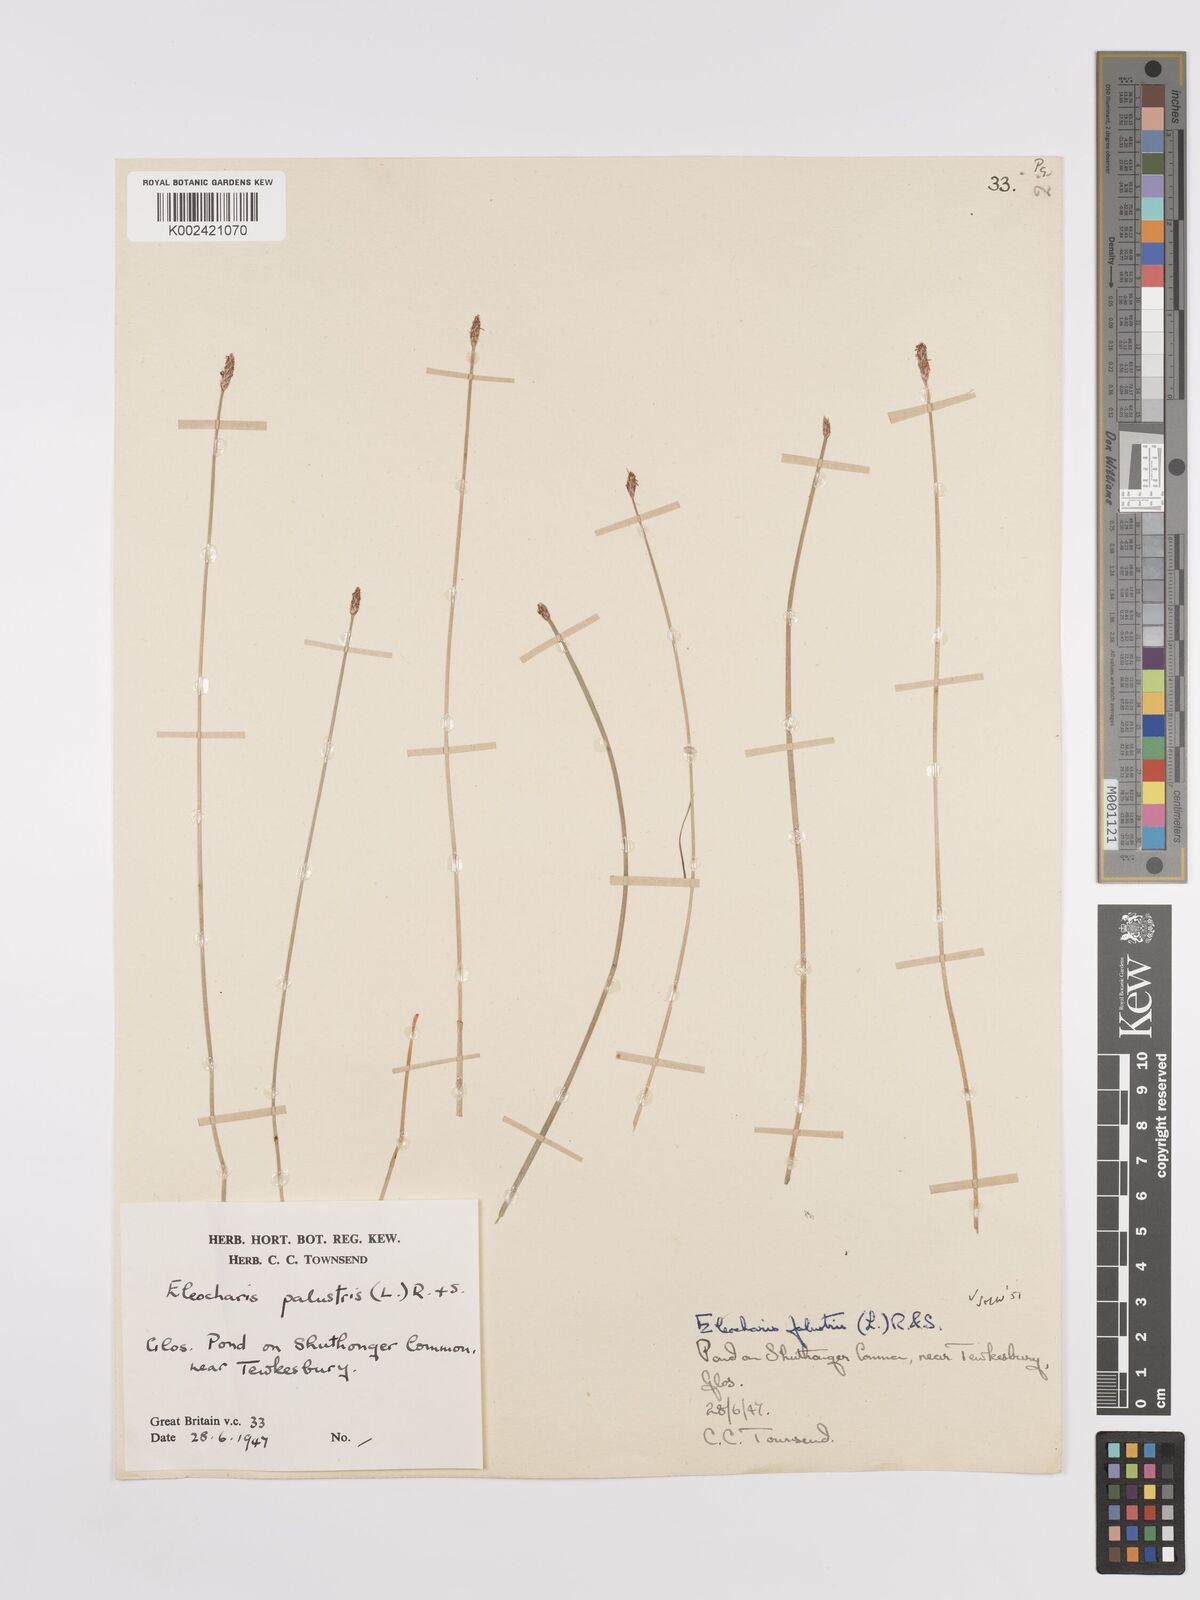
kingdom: Plantae
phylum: Tracheophyta
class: Liliopsida
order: Poales
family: Cyperaceae
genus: Eleocharis
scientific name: Eleocharis palustris
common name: Common spike-rush
